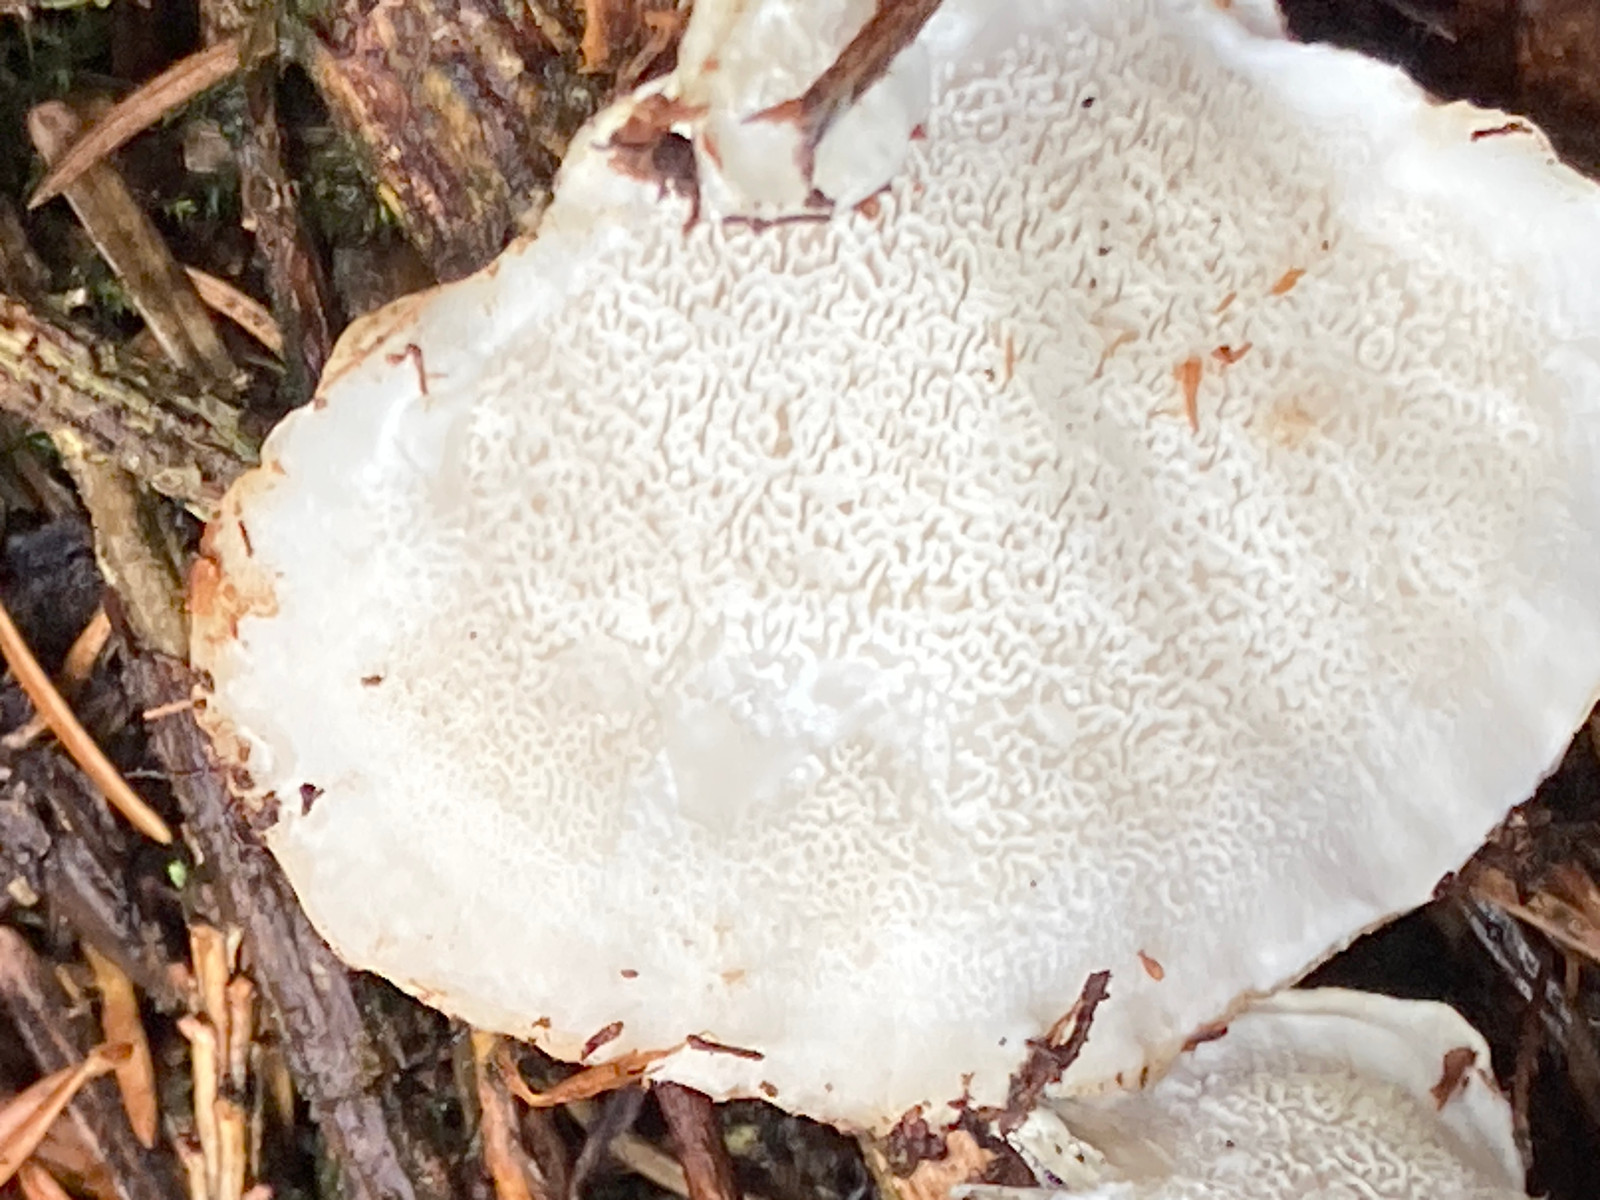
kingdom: Fungi
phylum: Basidiomycota
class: Agaricomycetes
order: Polyporales
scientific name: Polyporales
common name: poresvampordenen
